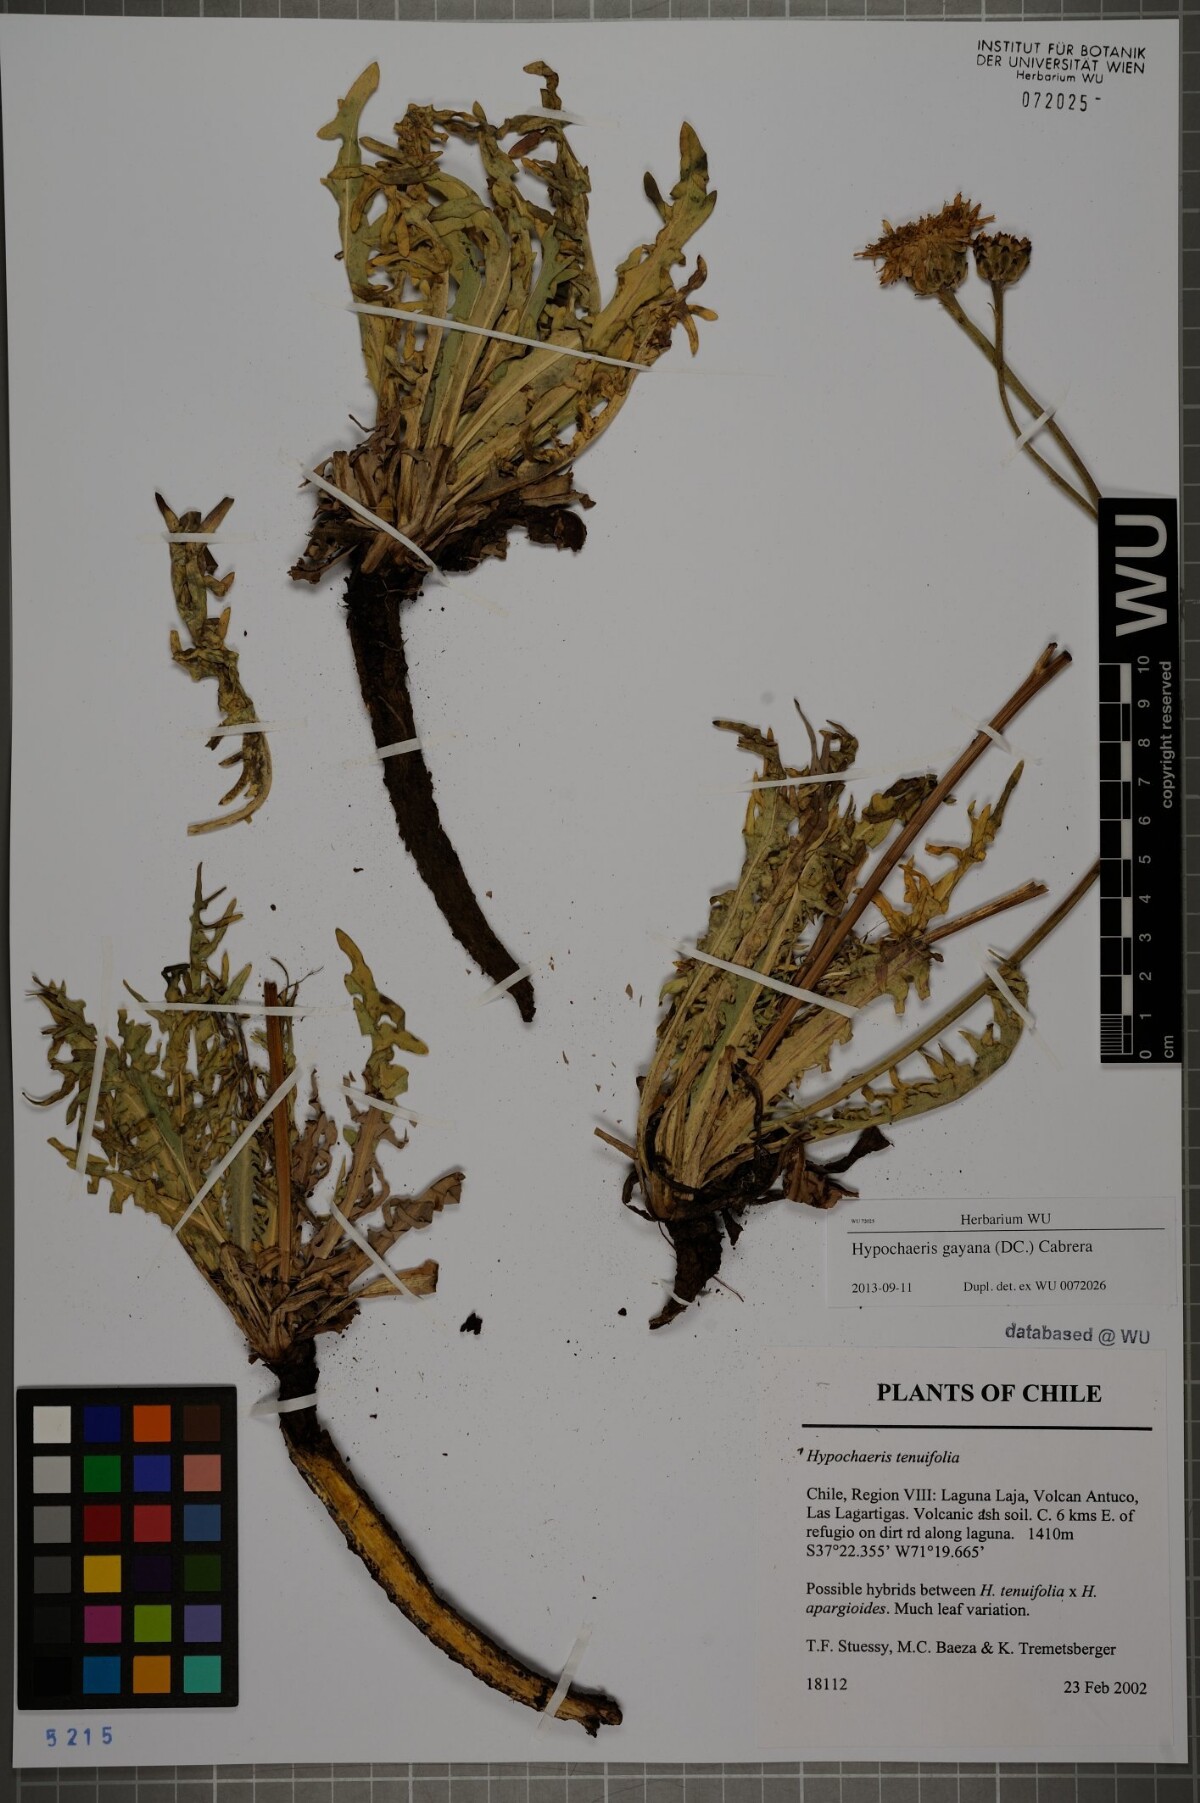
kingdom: Plantae
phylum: Tracheophyta
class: Magnoliopsida
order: Asterales
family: Asteraceae
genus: Hypochaeris
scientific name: Hypochaeris melanolepis
